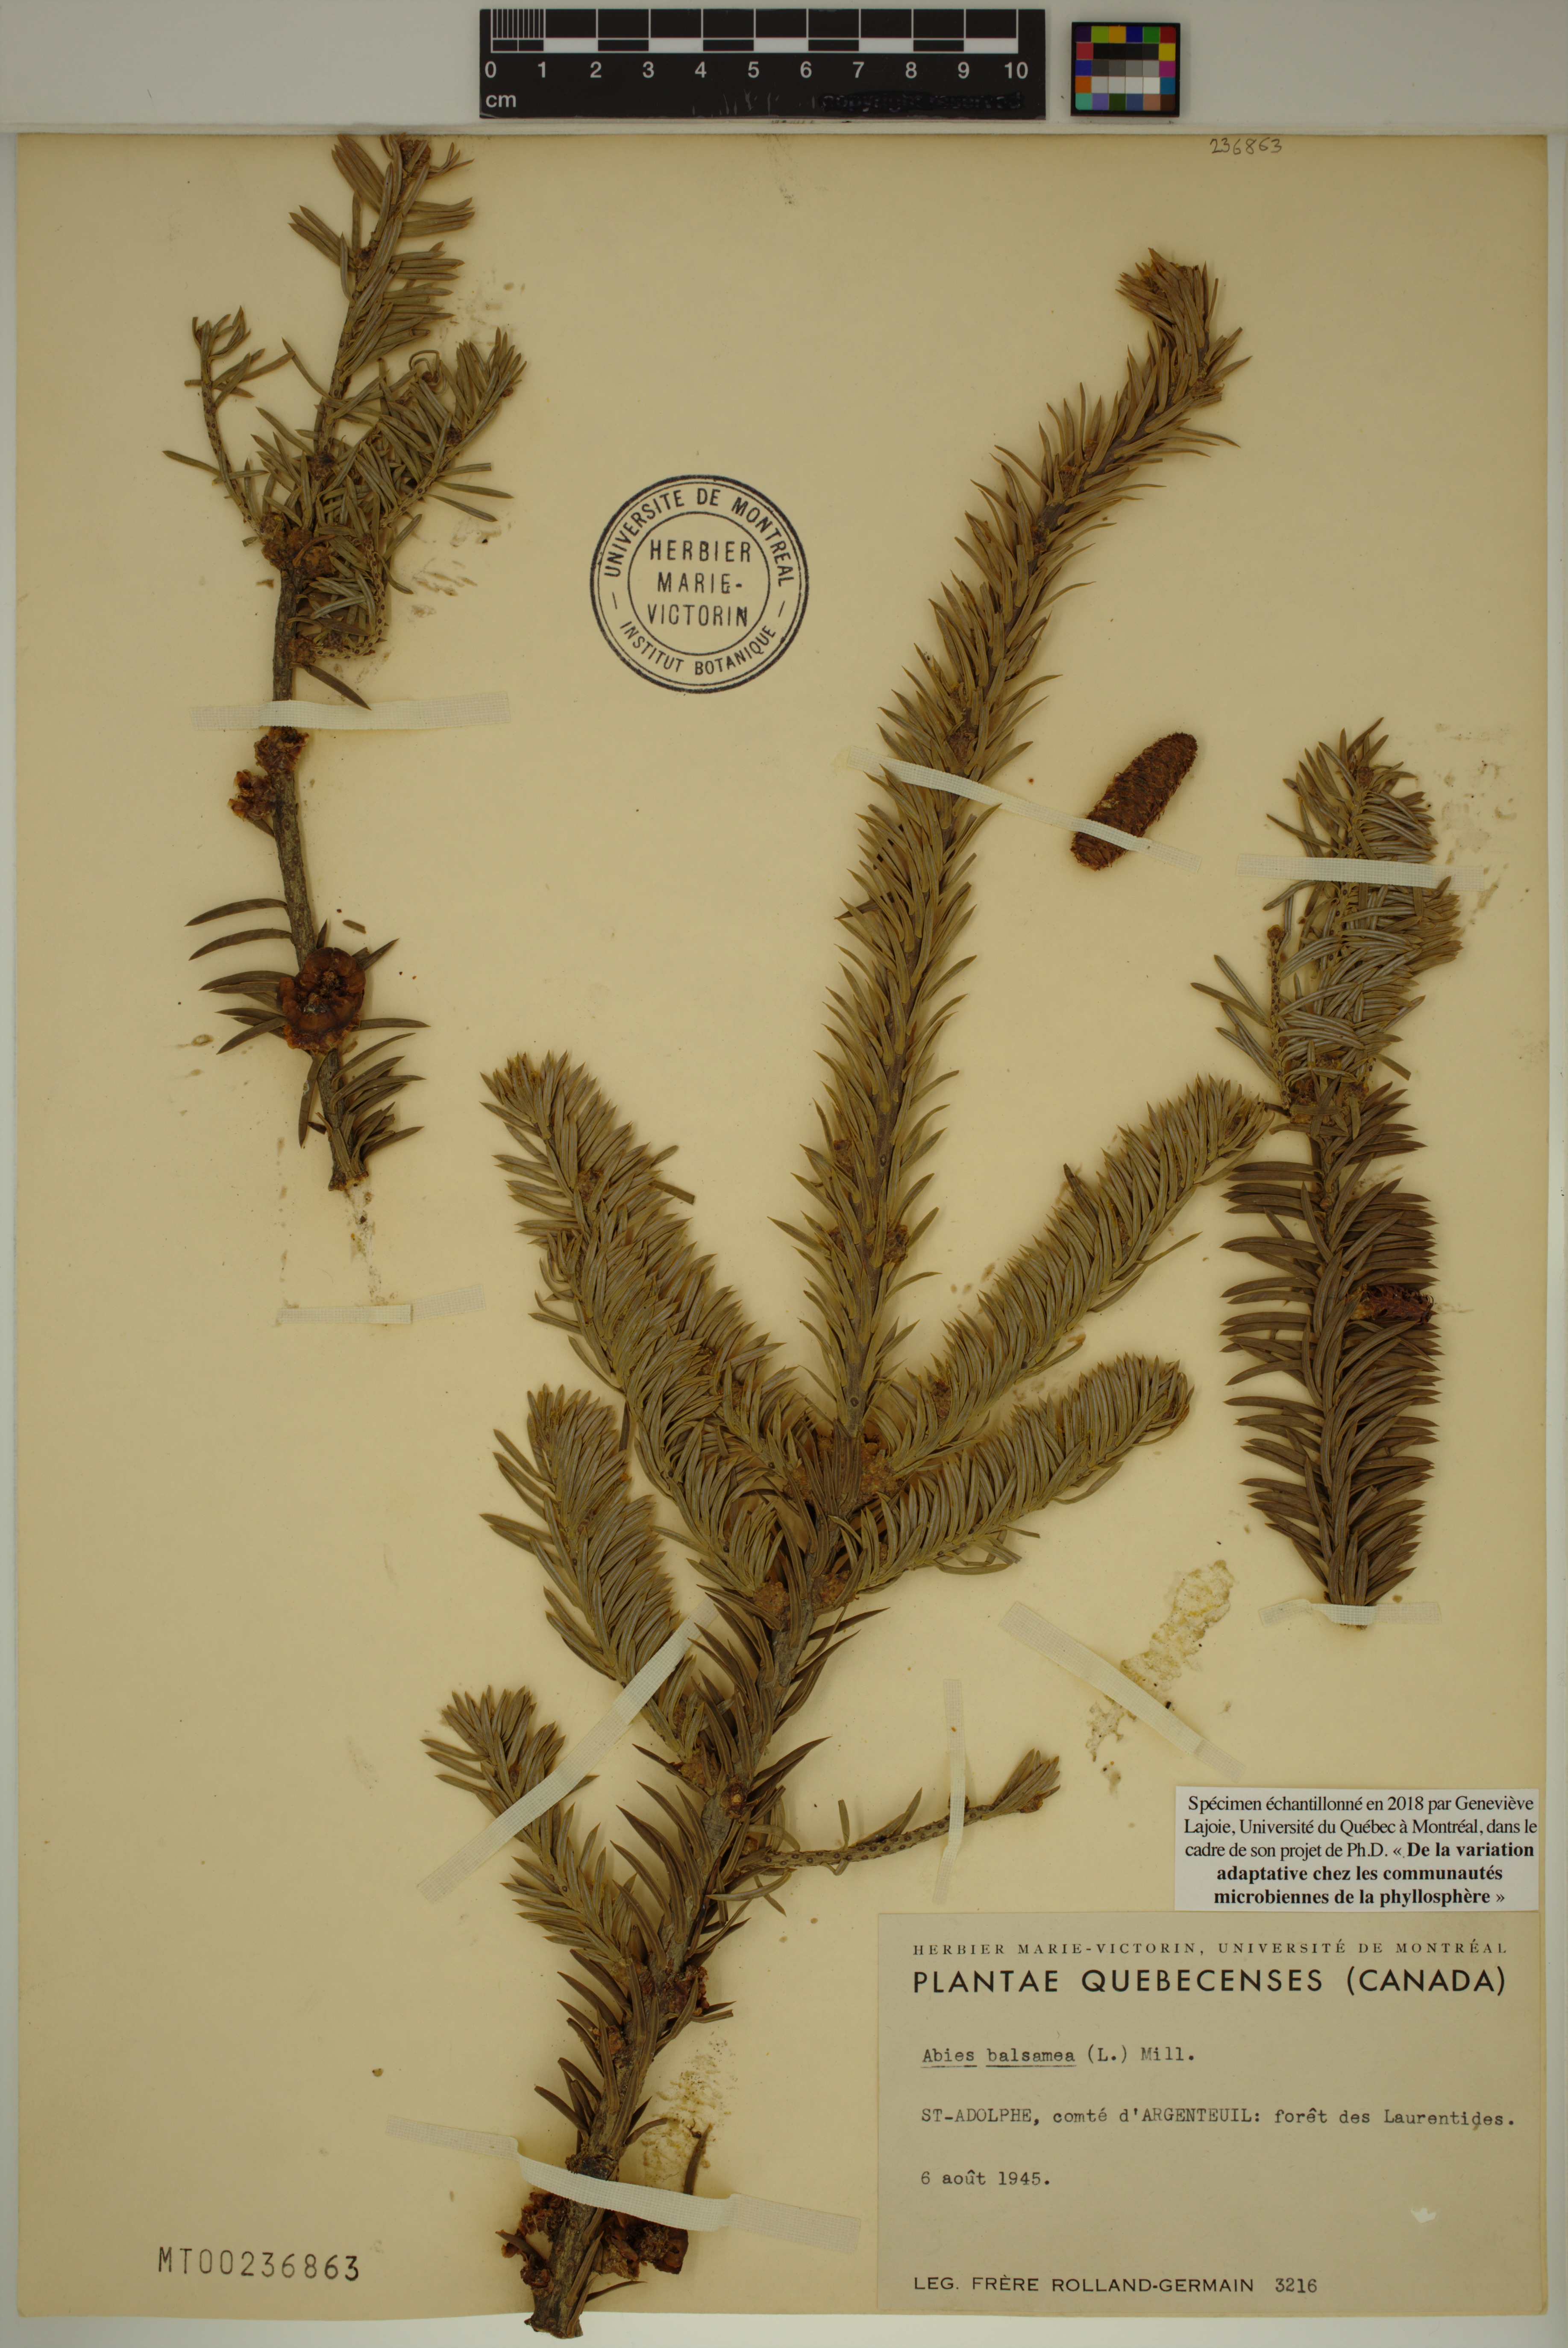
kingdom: Plantae
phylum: Tracheophyta
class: Pinopsida
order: Pinales
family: Pinaceae
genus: Abies
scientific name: Abies balsamea
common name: Balsam fir
